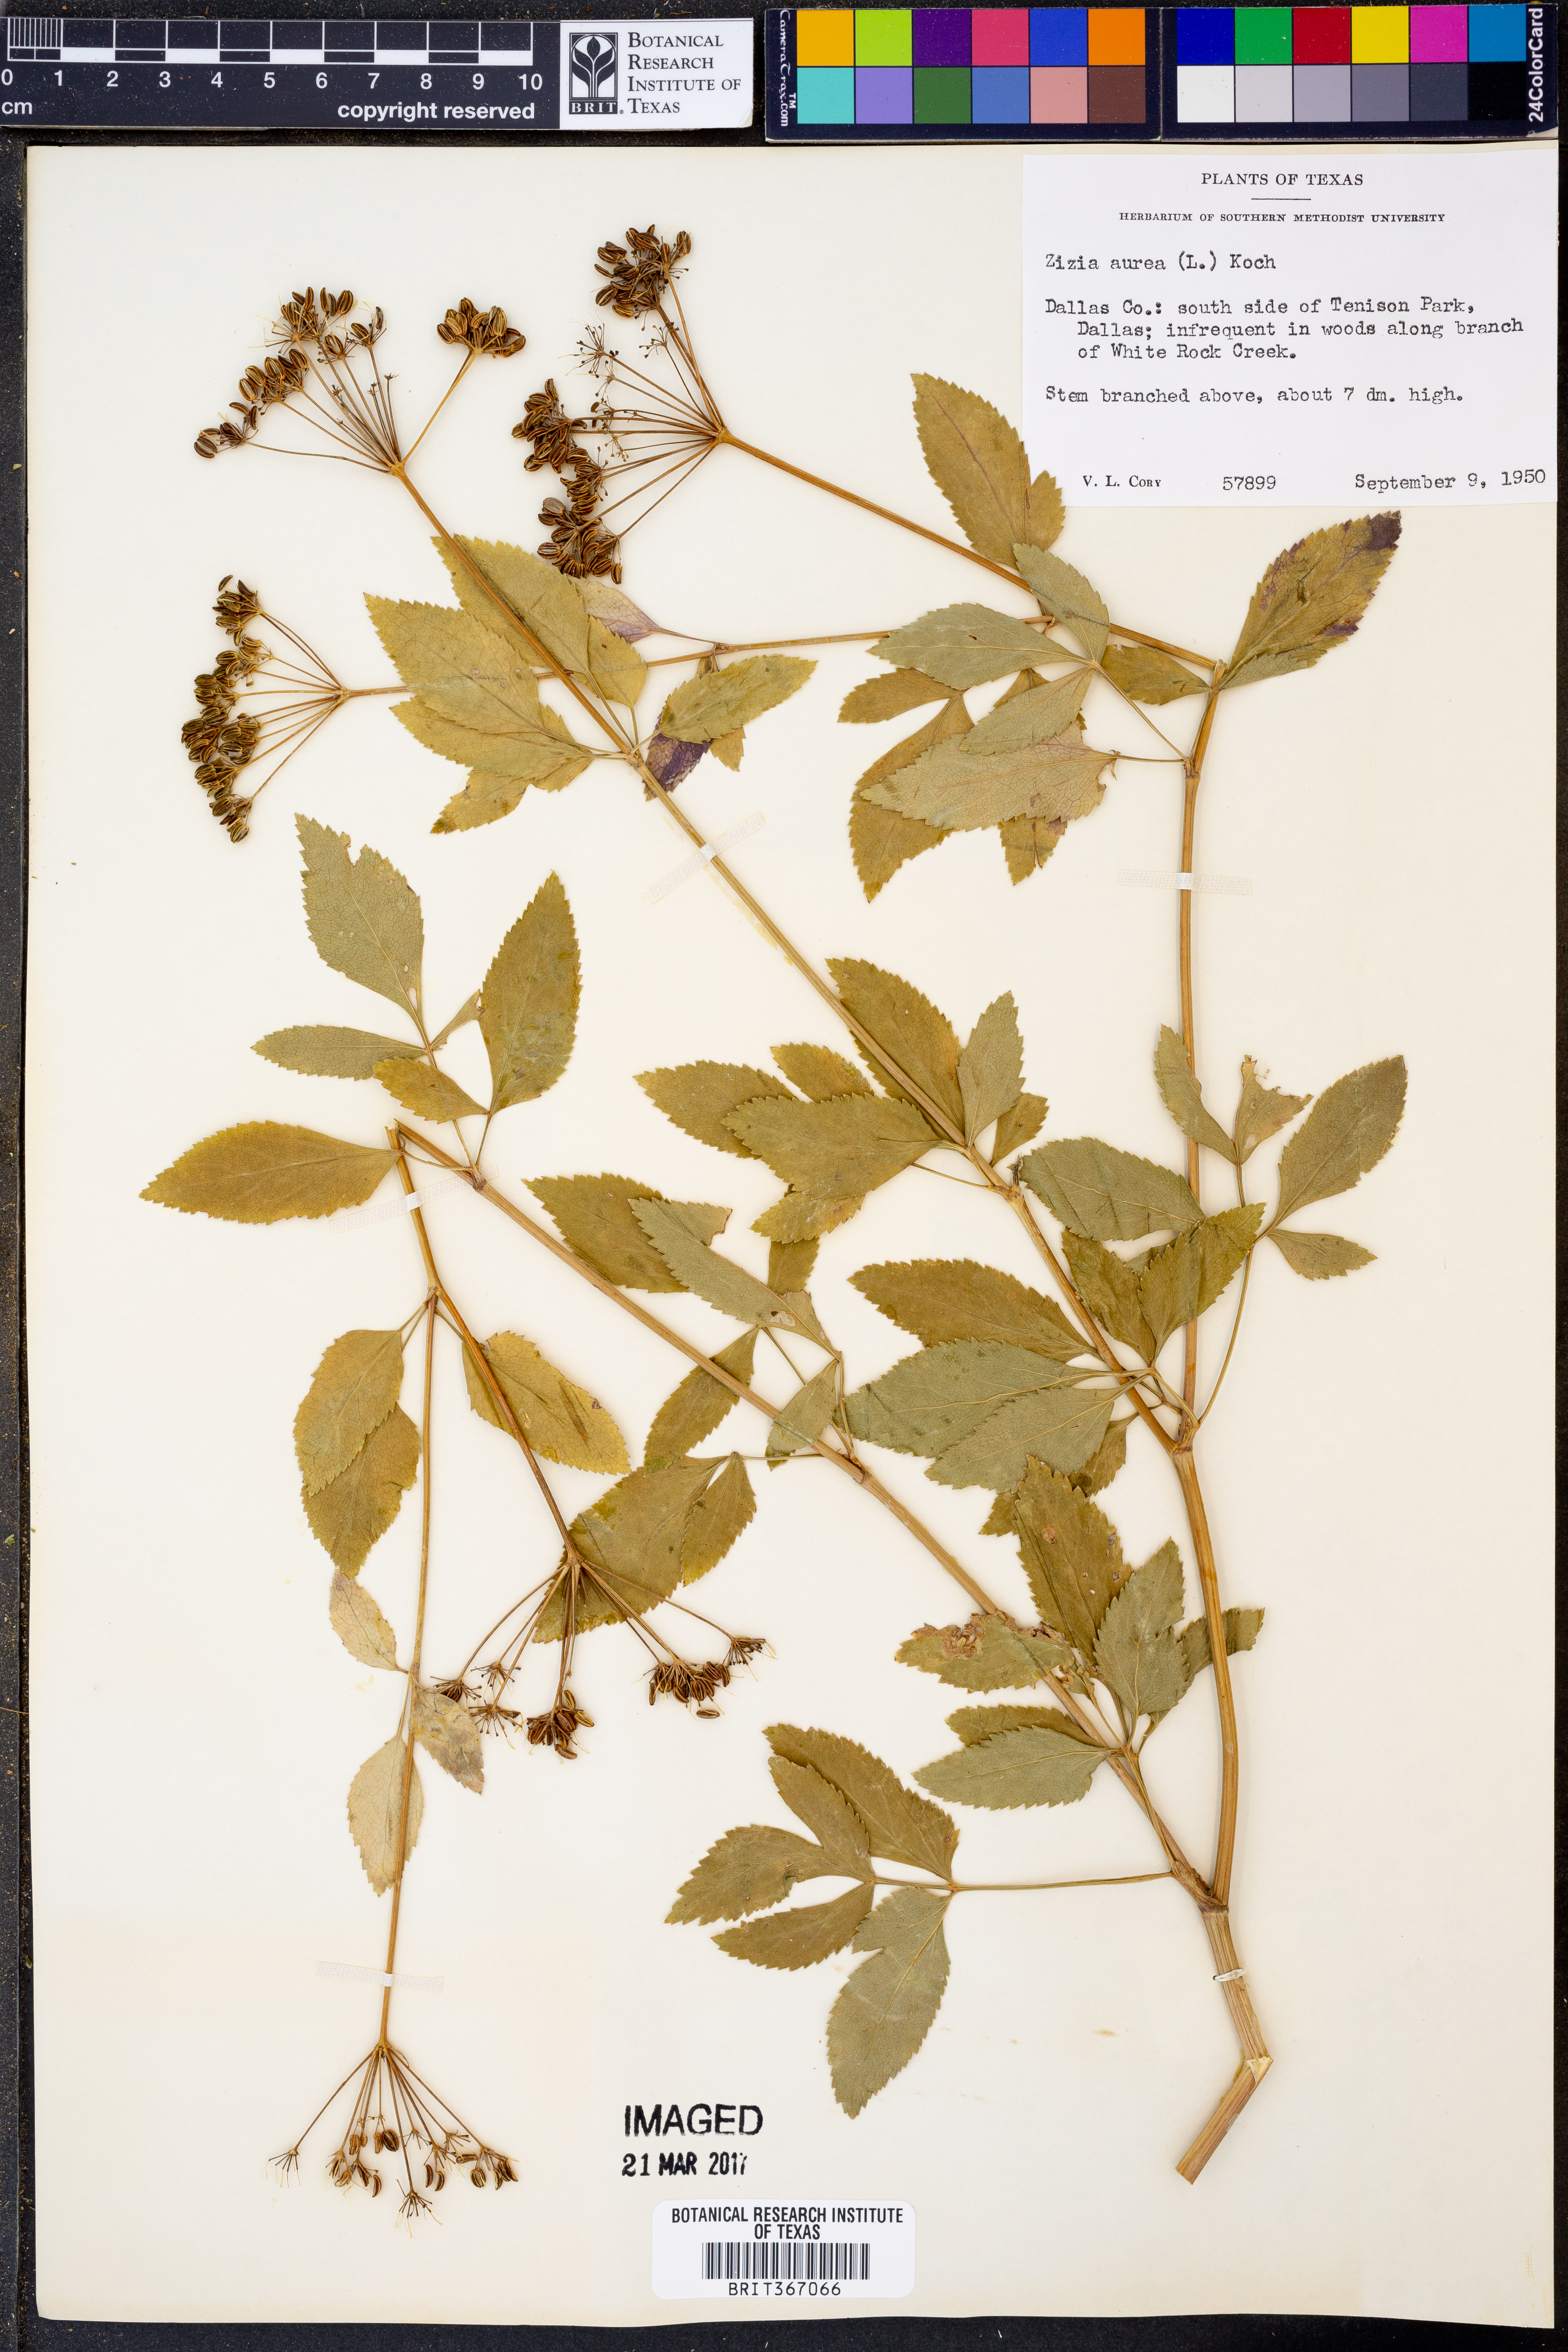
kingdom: Plantae
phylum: Tracheophyta
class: Magnoliopsida
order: Apiales
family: Apiaceae
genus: Zizia
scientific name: Zizia aurea
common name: Golden alexanders
